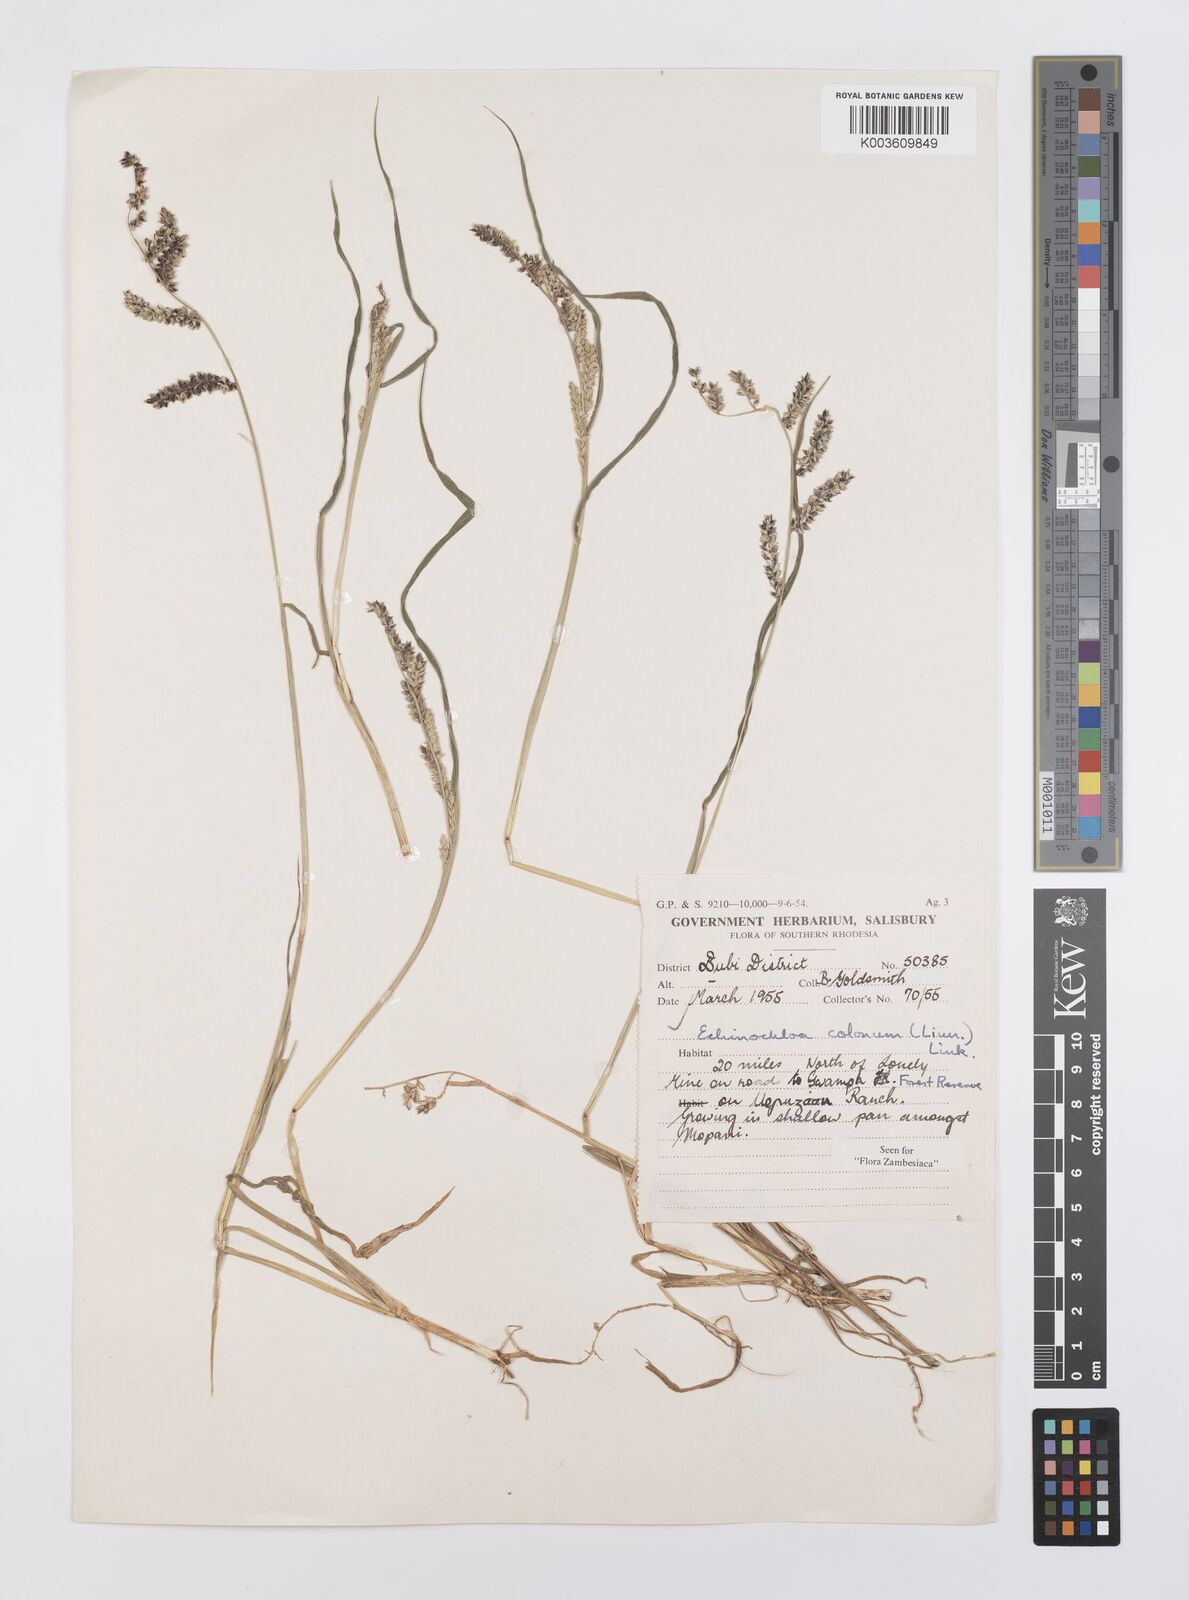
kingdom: Plantae
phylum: Tracheophyta
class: Liliopsida
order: Poales
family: Poaceae
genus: Echinochloa
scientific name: Echinochloa colonum
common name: Jungle rice
